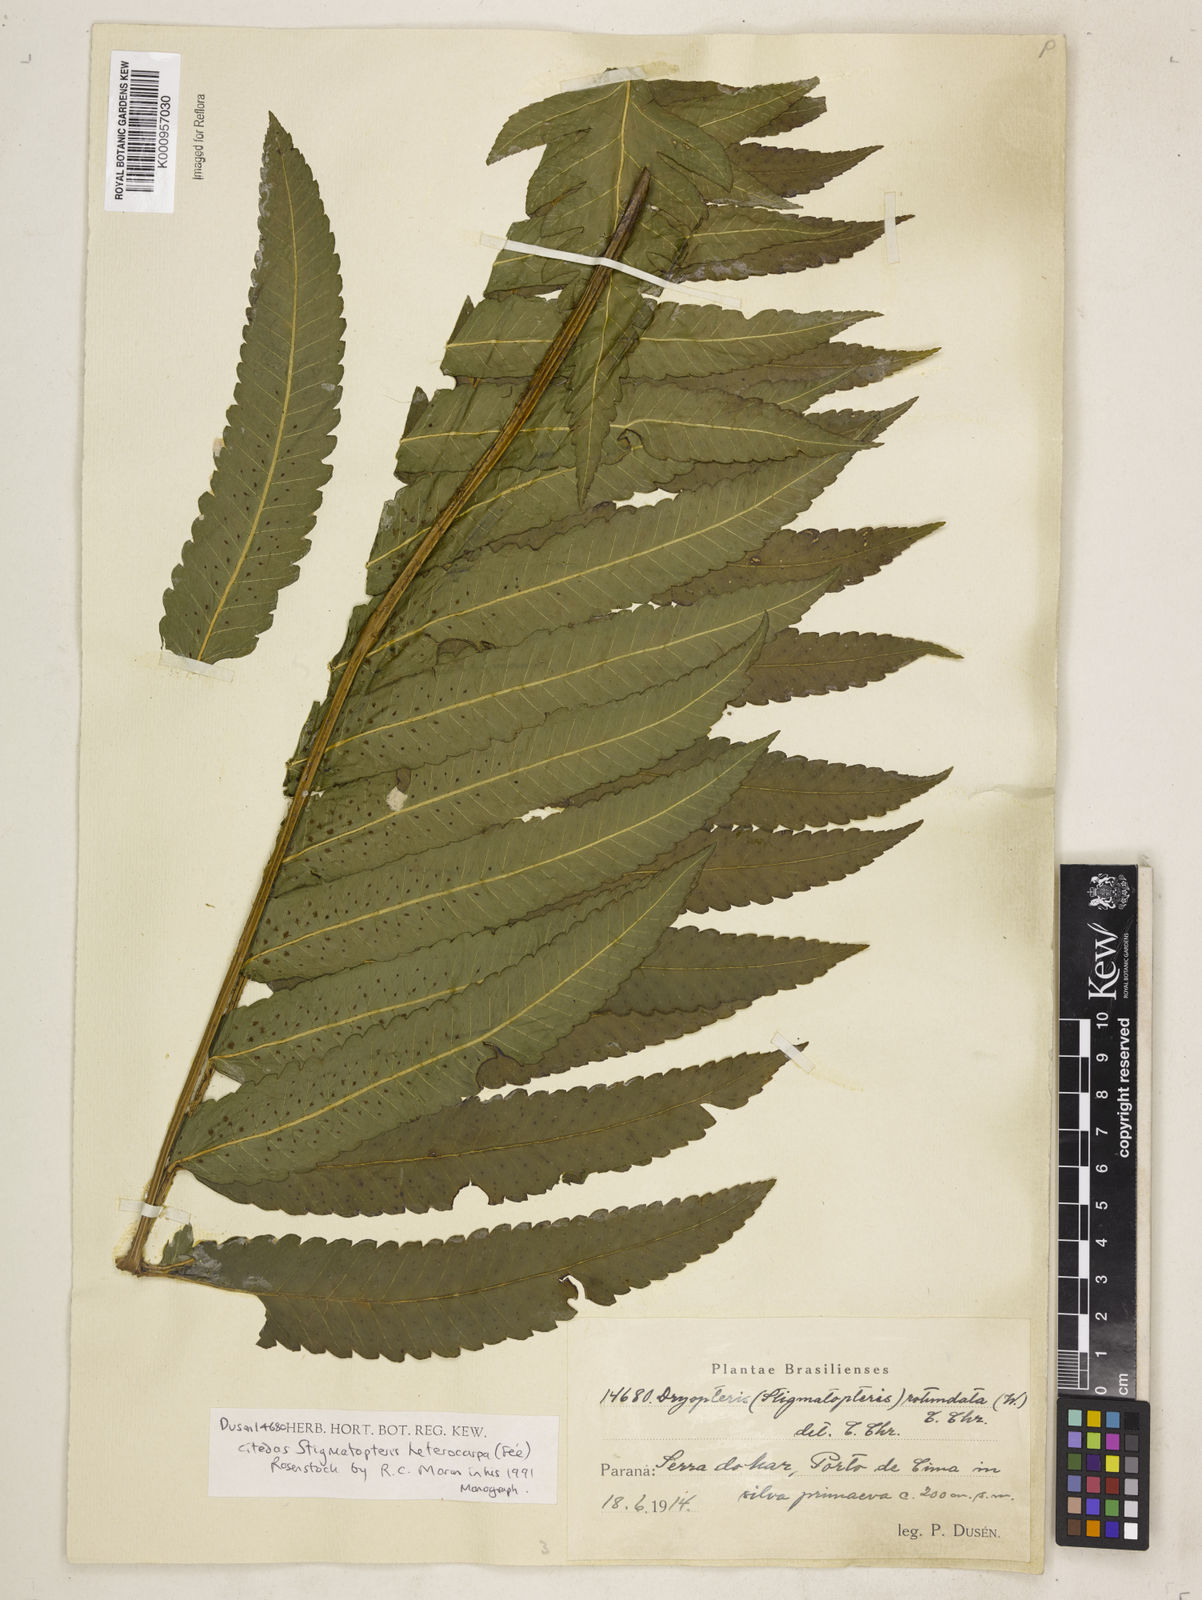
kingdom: Plantae
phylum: Tracheophyta
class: Polypodiopsida
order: Polypodiales
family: Dryopteridaceae
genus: Stigmatopteris
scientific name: Stigmatopteris
